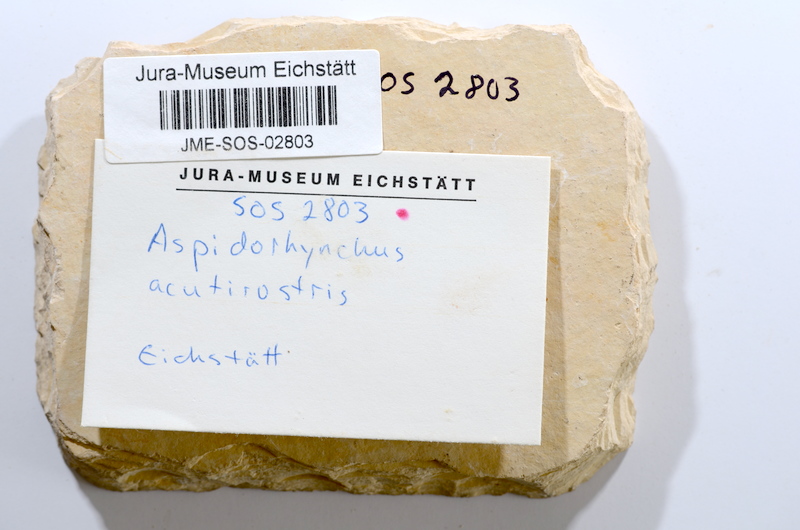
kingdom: Animalia
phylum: Chordata
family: Aspidorhynchidae
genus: Aspidorhynchus
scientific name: Aspidorhynchus acutirostris
